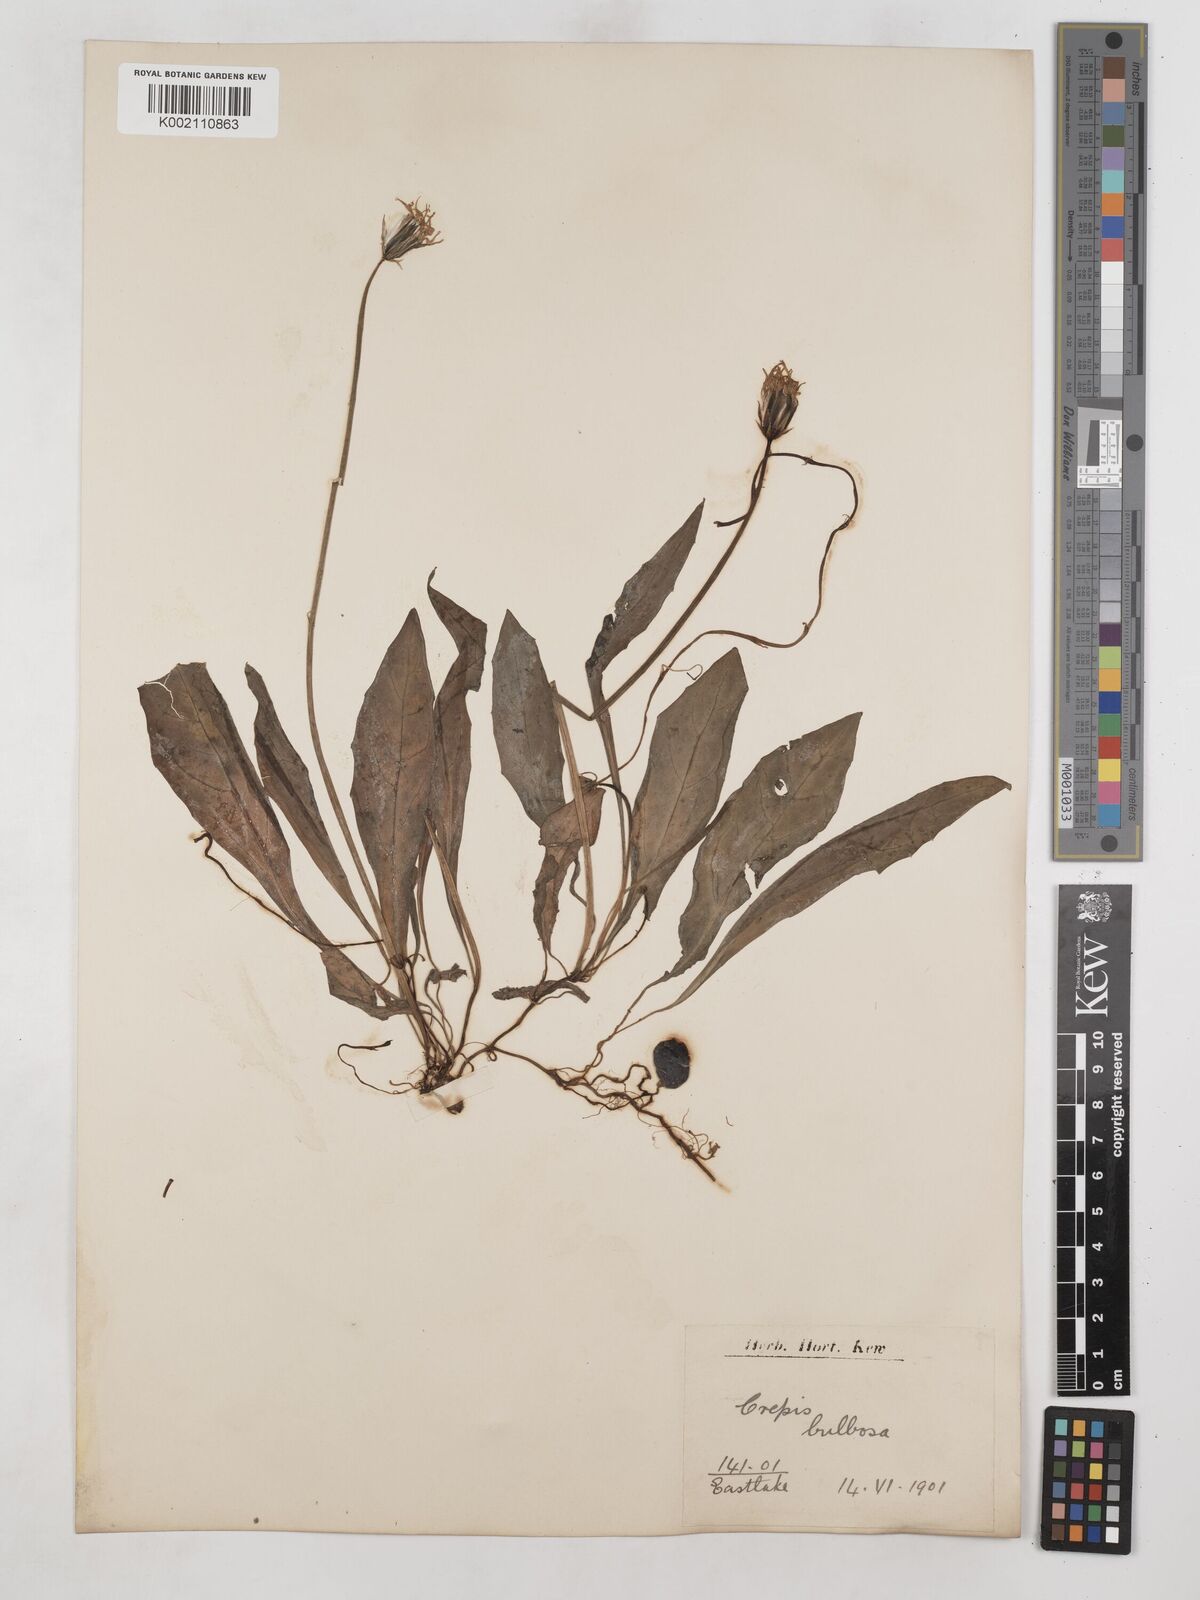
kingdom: Plantae
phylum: Tracheophyta
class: Magnoliopsida
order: Asterales
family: Asteraceae
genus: Aetheorhiza
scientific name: Aetheorhiza bulbosa
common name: Tuberous hawk's-beard
